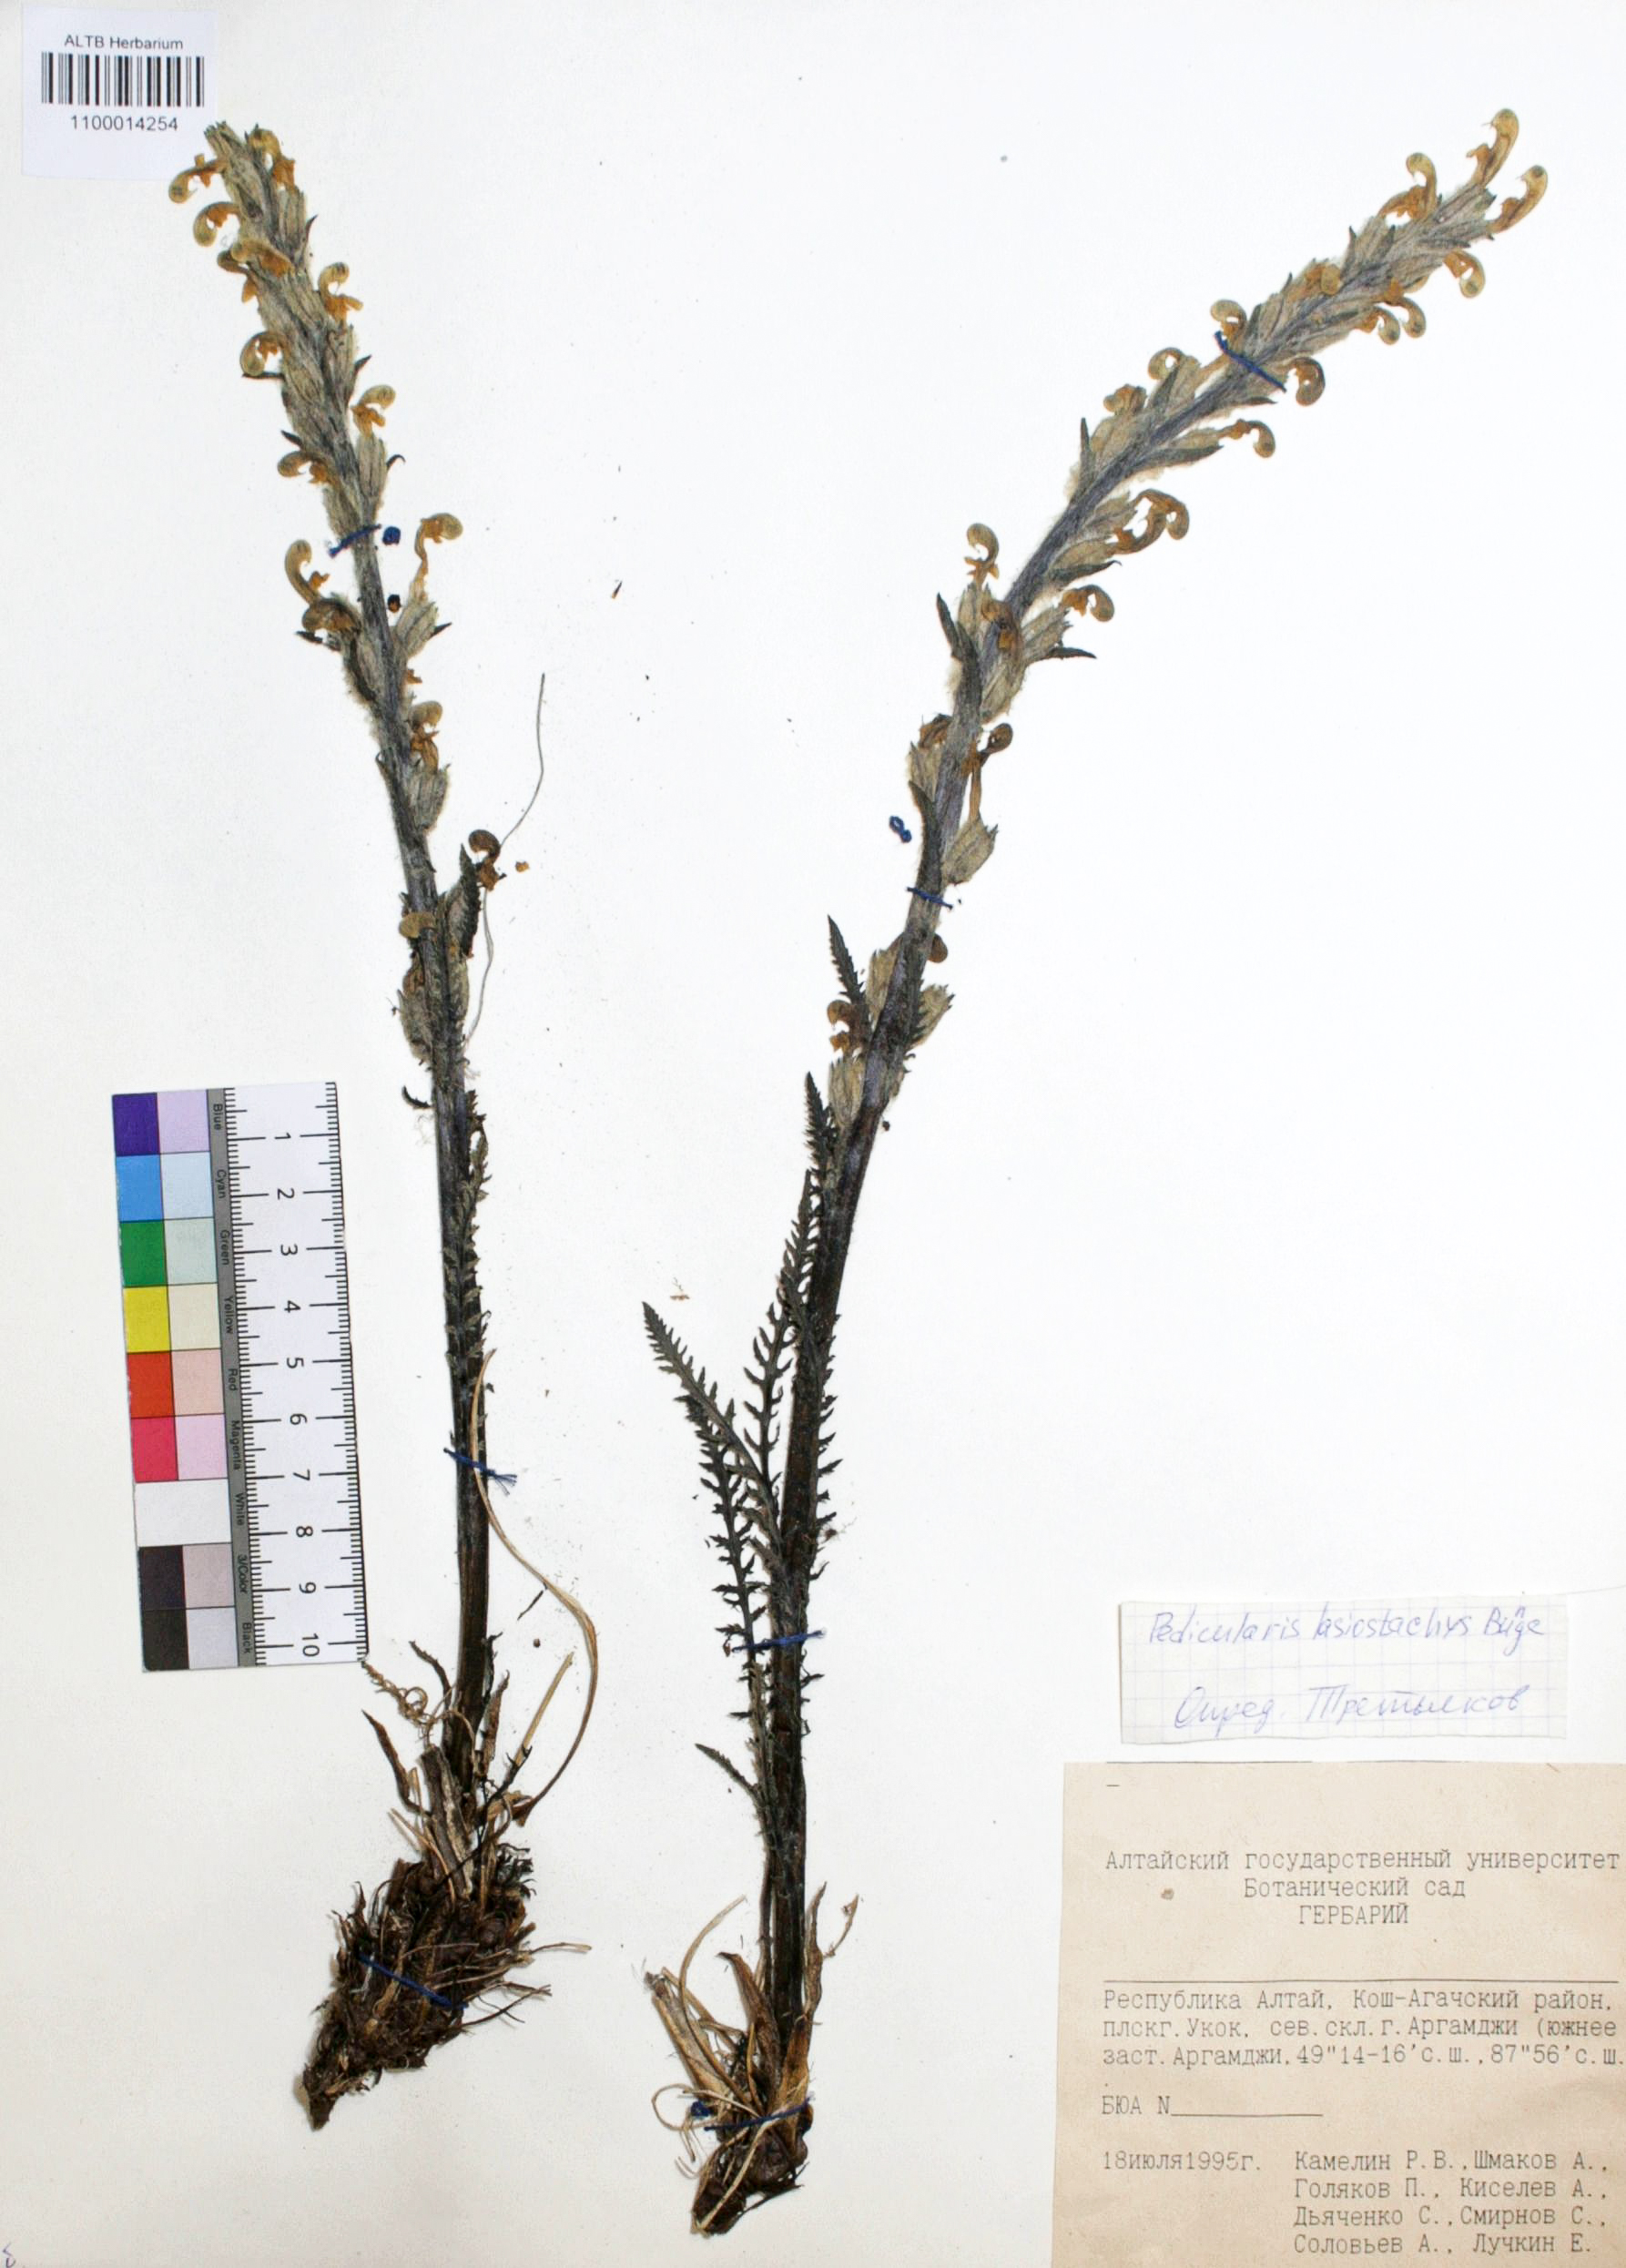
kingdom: Plantae
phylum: Tracheophyta
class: Magnoliopsida
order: Lamiales
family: Orobanchaceae
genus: Pedicularis
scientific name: Pedicularis lasiostachys
